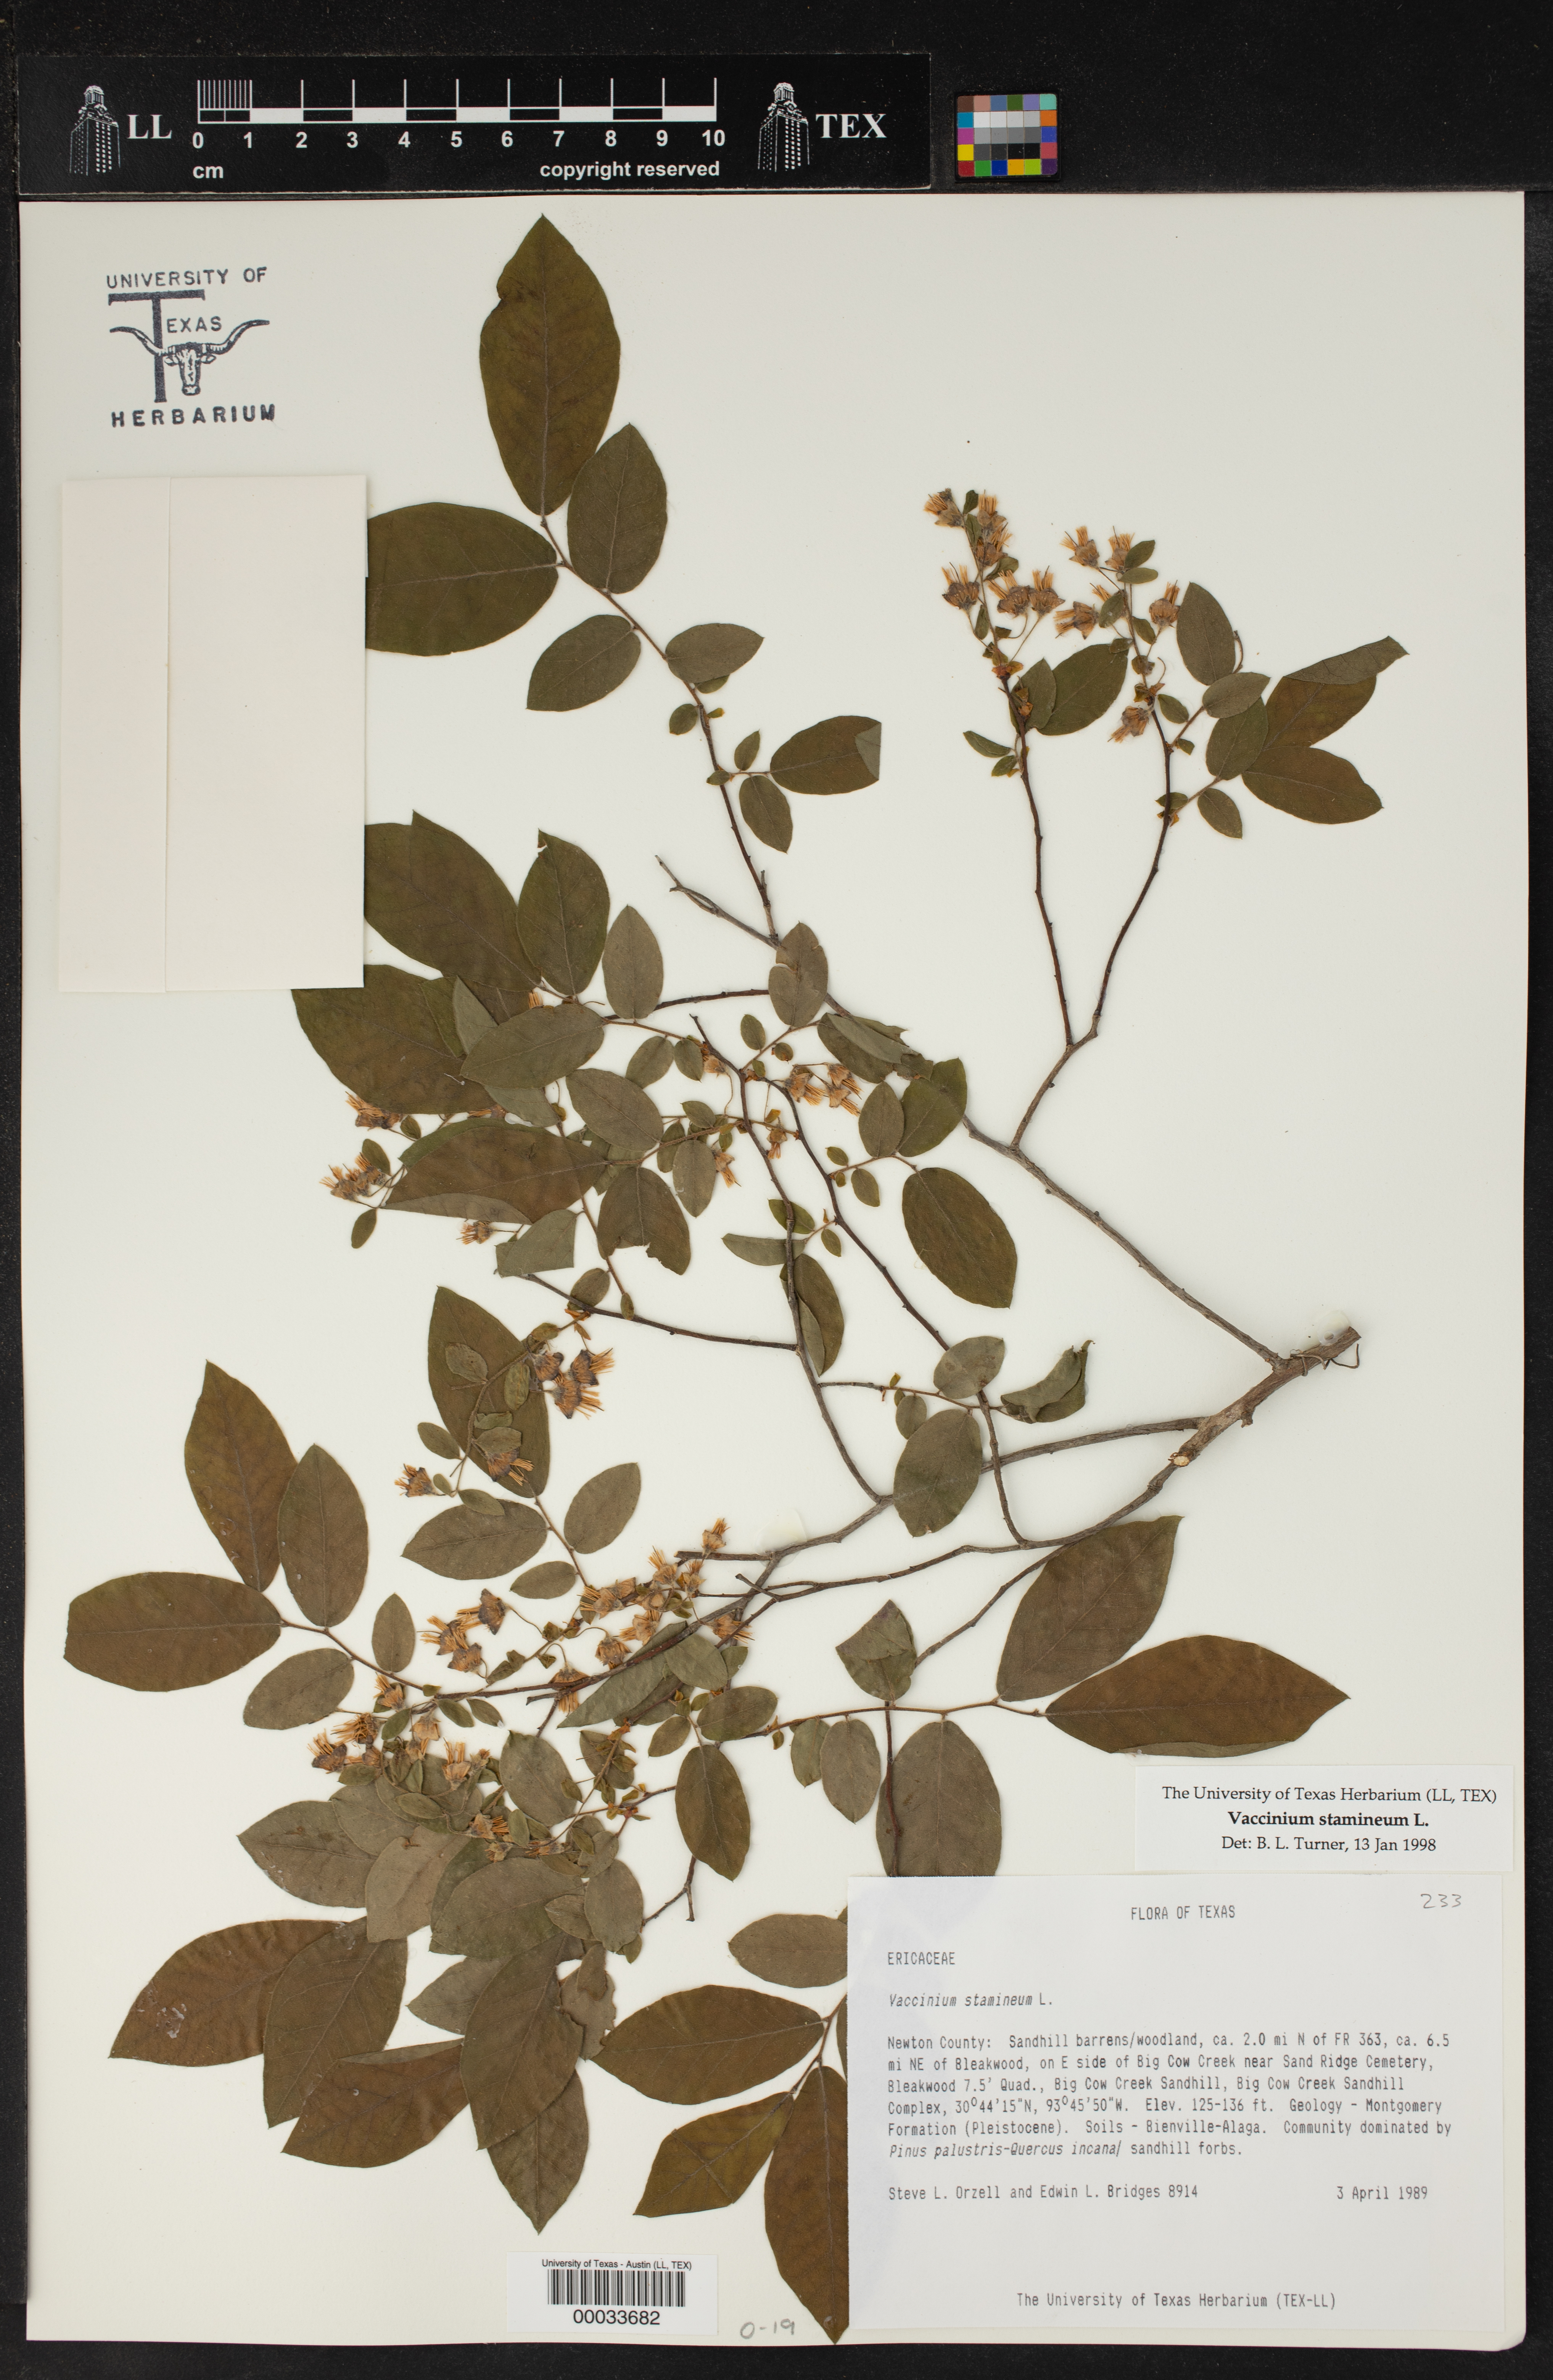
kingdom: Plantae
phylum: Tracheophyta
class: Magnoliopsida
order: Ericales
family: Ericaceae
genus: Vaccinium
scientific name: Vaccinium stamineum
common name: Deerberry
